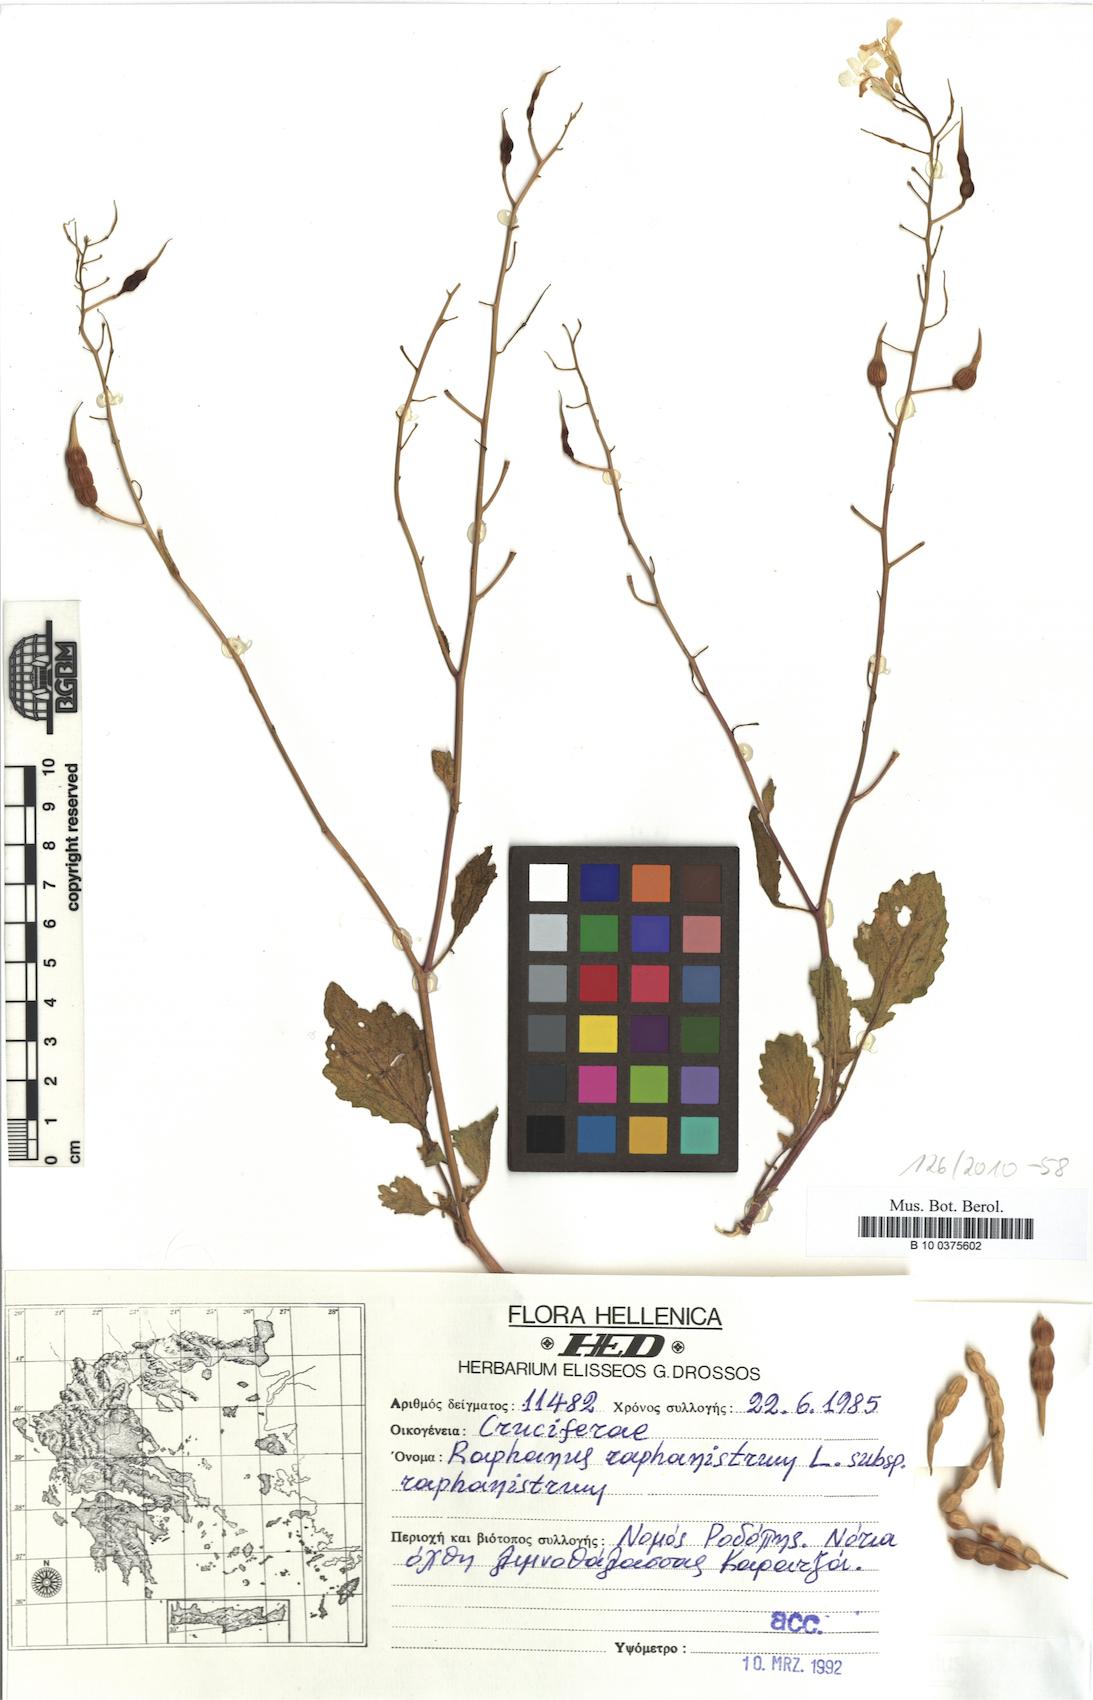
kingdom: Plantae
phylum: Tracheophyta
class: Magnoliopsida
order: Brassicales
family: Brassicaceae
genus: Raphanus
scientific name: Raphanus raphanistrum
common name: Wild radish
